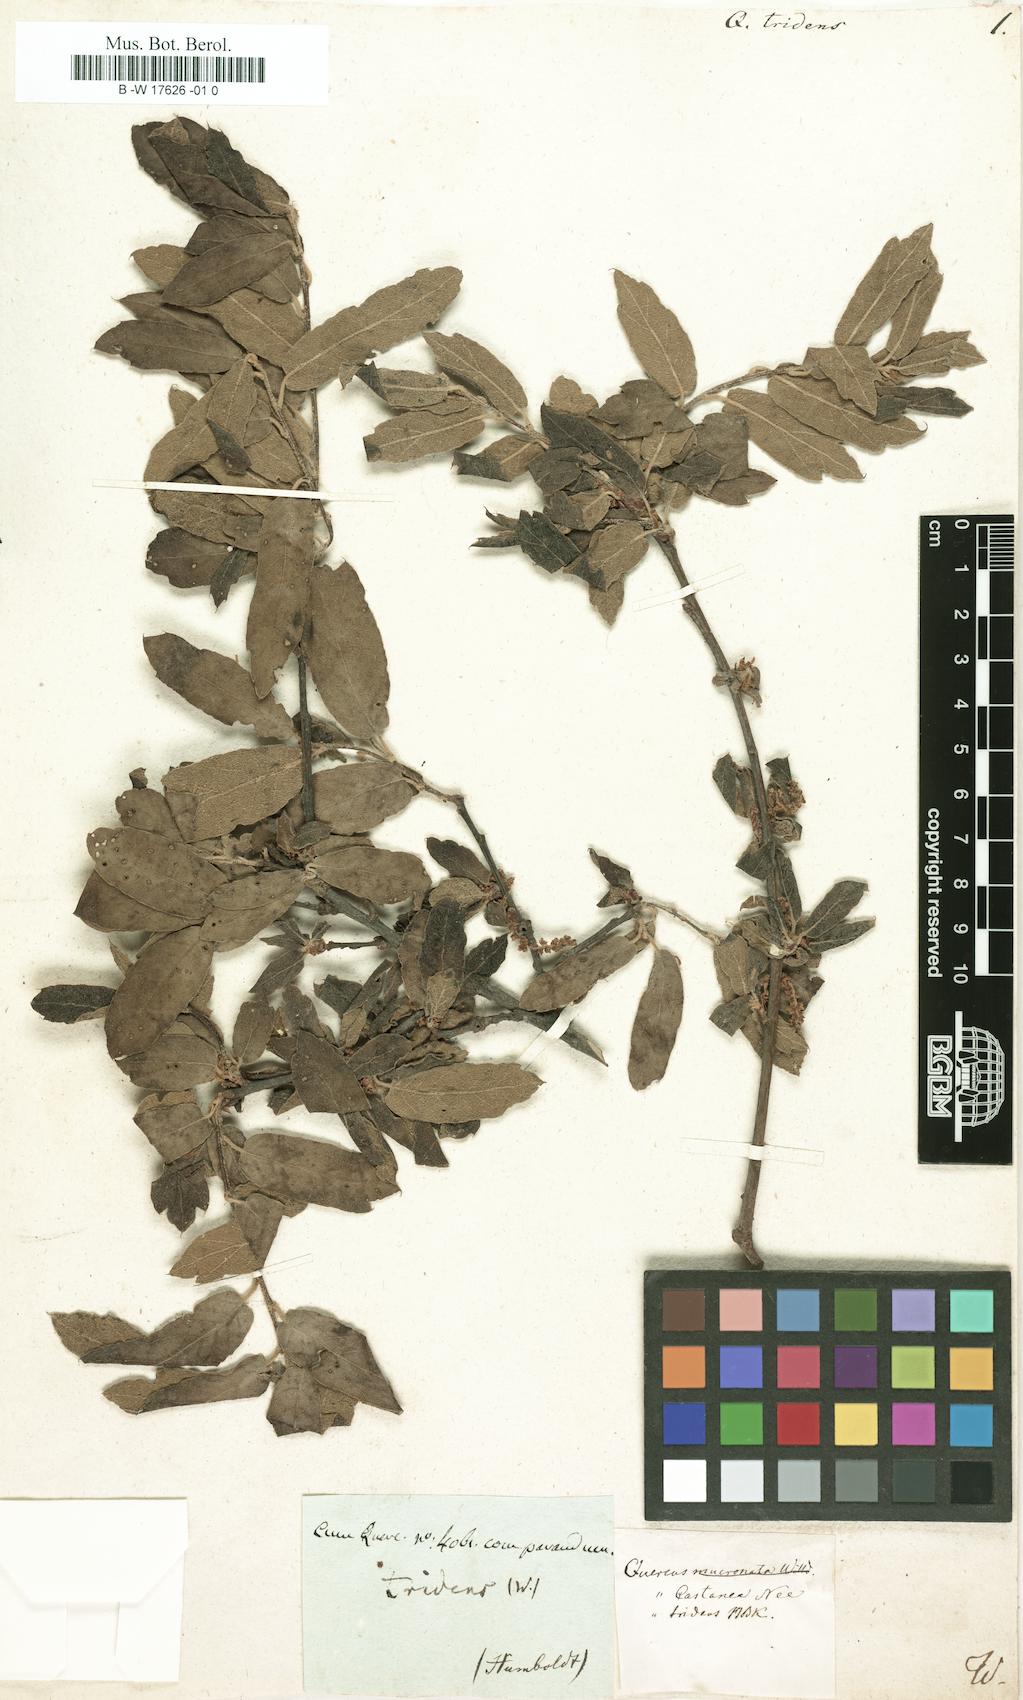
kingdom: Plantae
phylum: Tracheophyta
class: Magnoliopsida
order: Fagales
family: Fagaceae
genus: Quercus
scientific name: Quercus laurina
